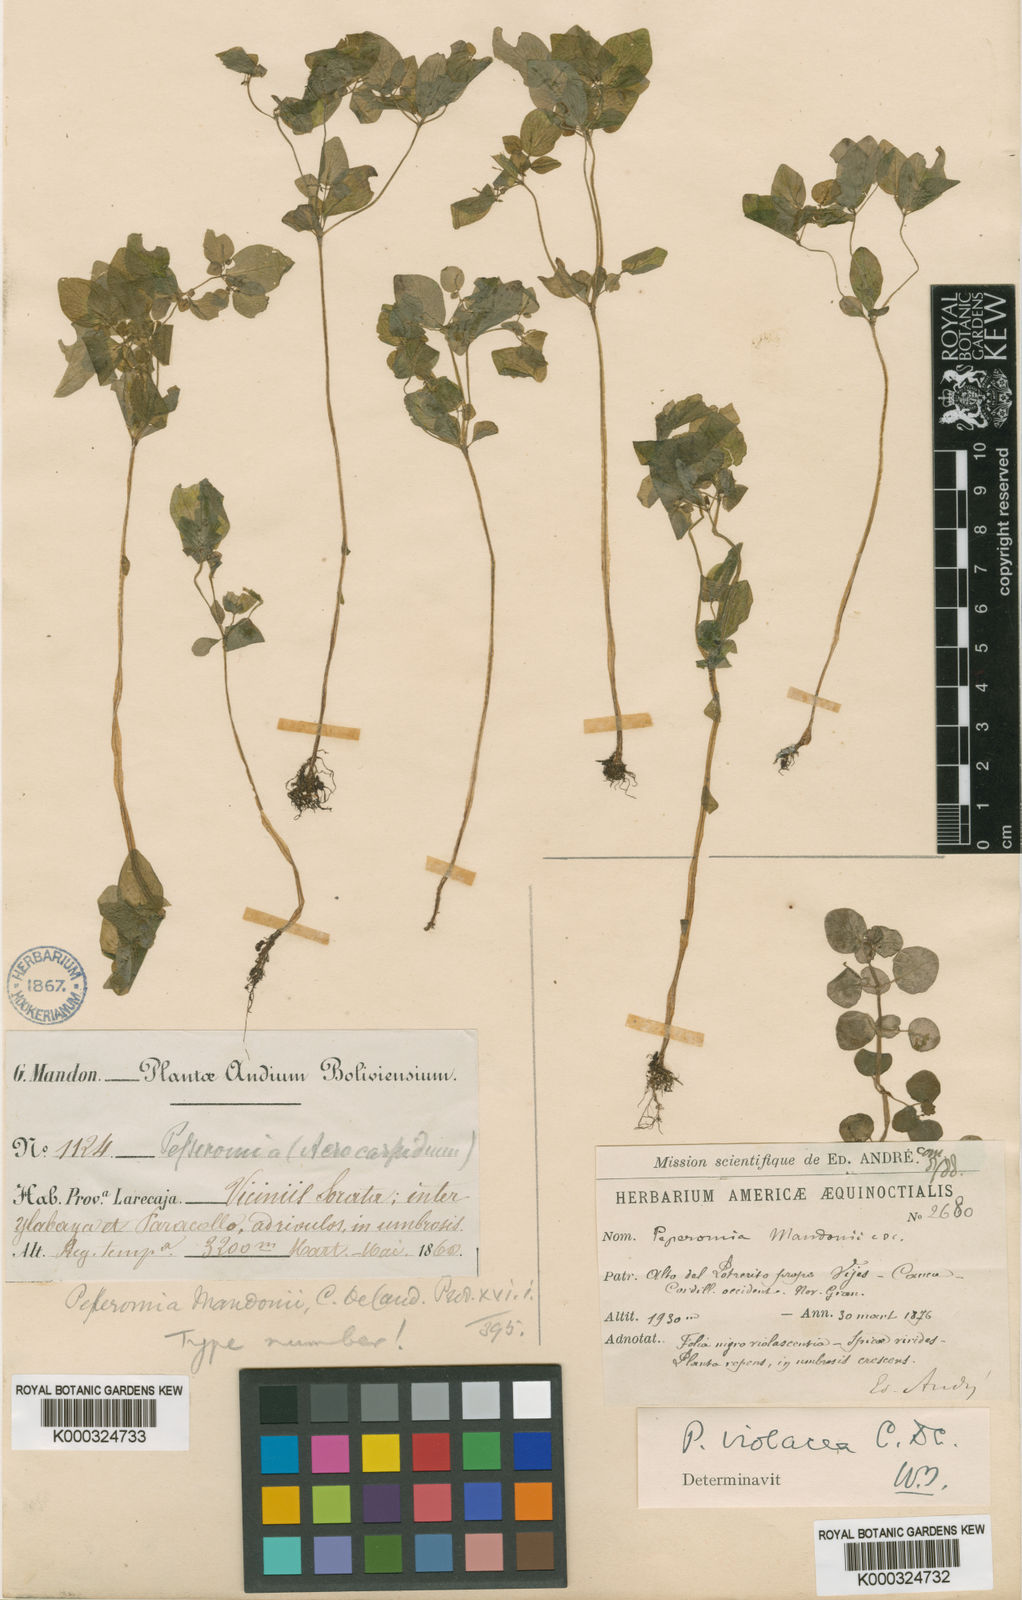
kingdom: Plantae
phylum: Tracheophyta
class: Magnoliopsida
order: Piperales
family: Piperaceae
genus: Peperomia
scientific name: Peperomia mandonii
